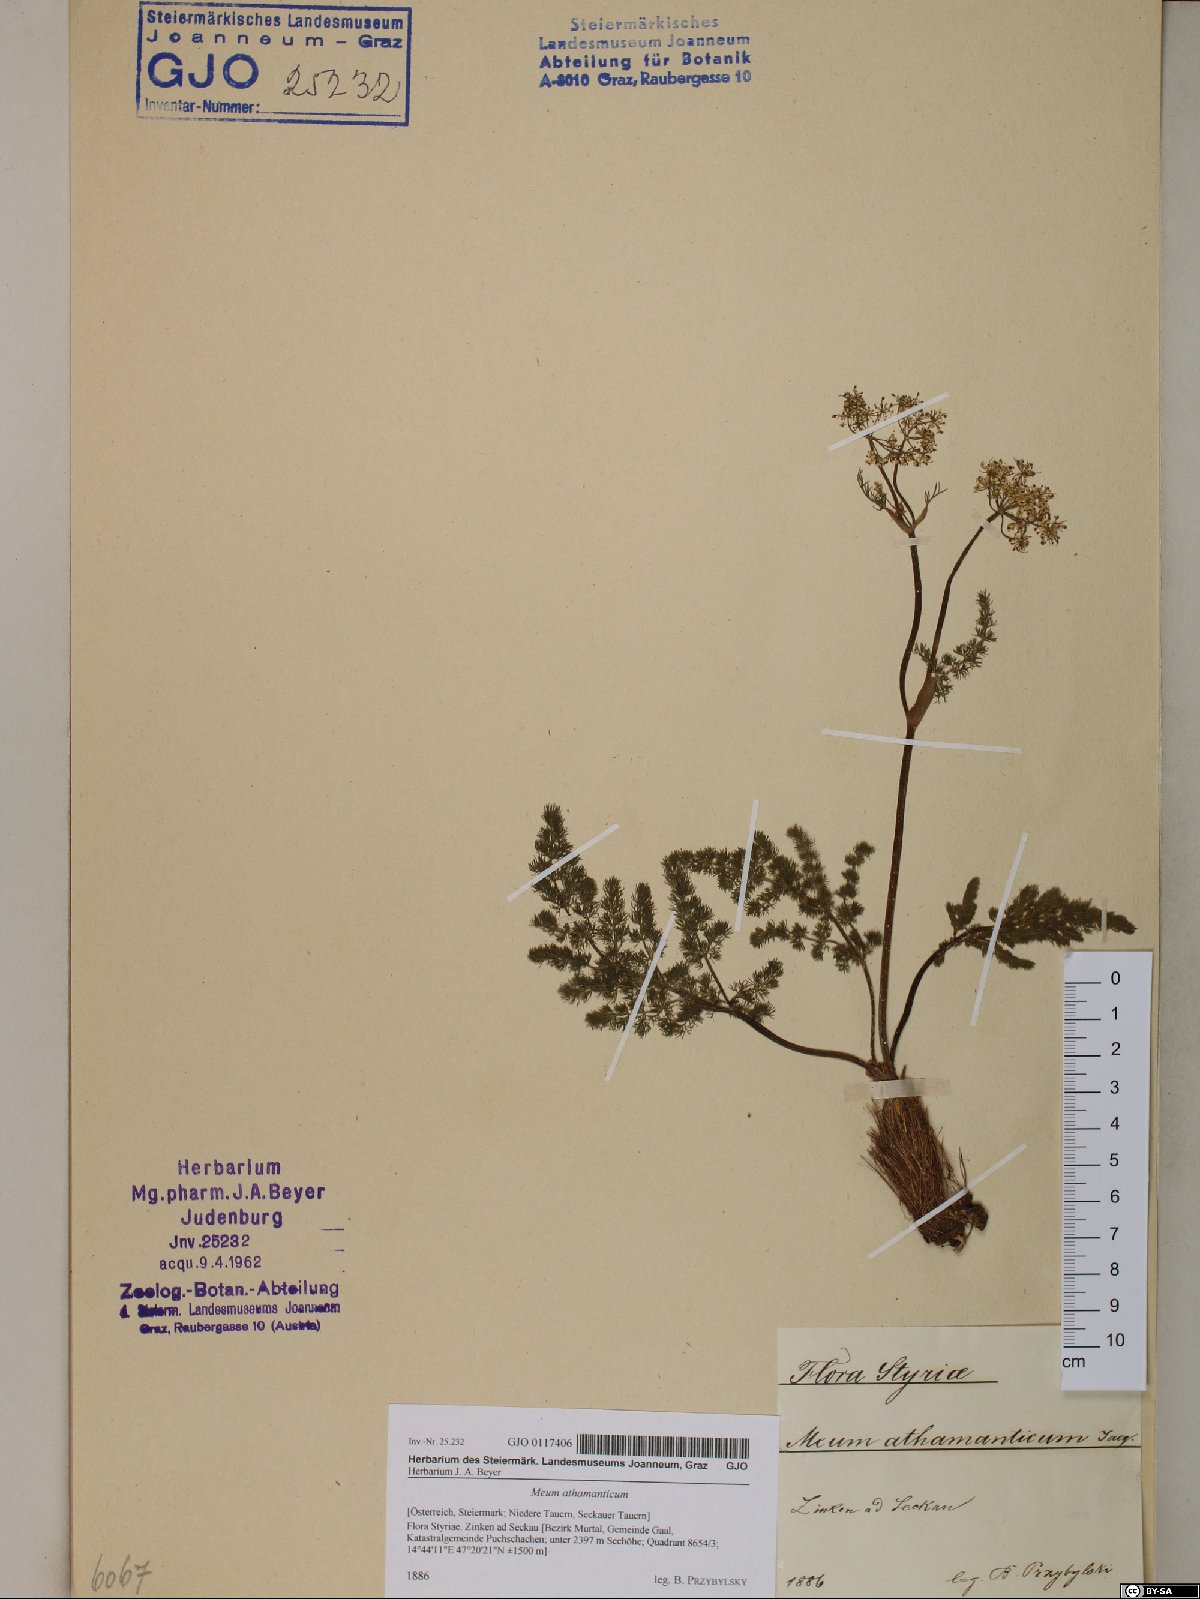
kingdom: Plantae
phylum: Tracheophyta
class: Magnoliopsida
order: Apiales
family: Apiaceae
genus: Meum
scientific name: Meum athamanticum
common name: Spignel
